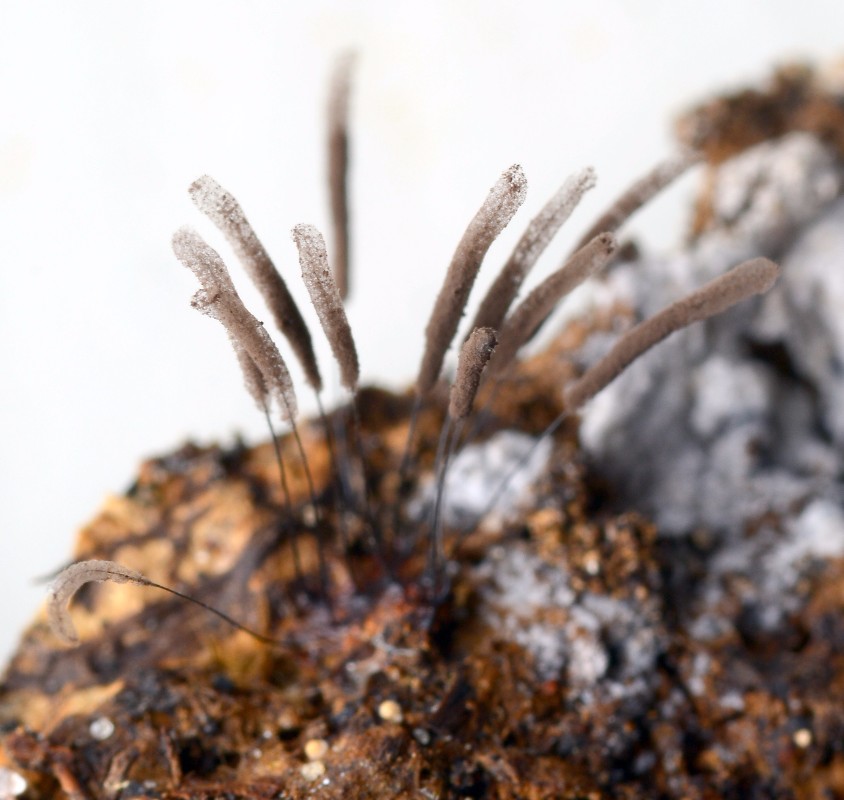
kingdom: Protozoa
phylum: Mycetozoa
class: Myxomycetes
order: Stemonitidales
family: Stemonitidaceae
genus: Stemonitis
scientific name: Stemonitis axifera
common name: rødbrun støvkølle
